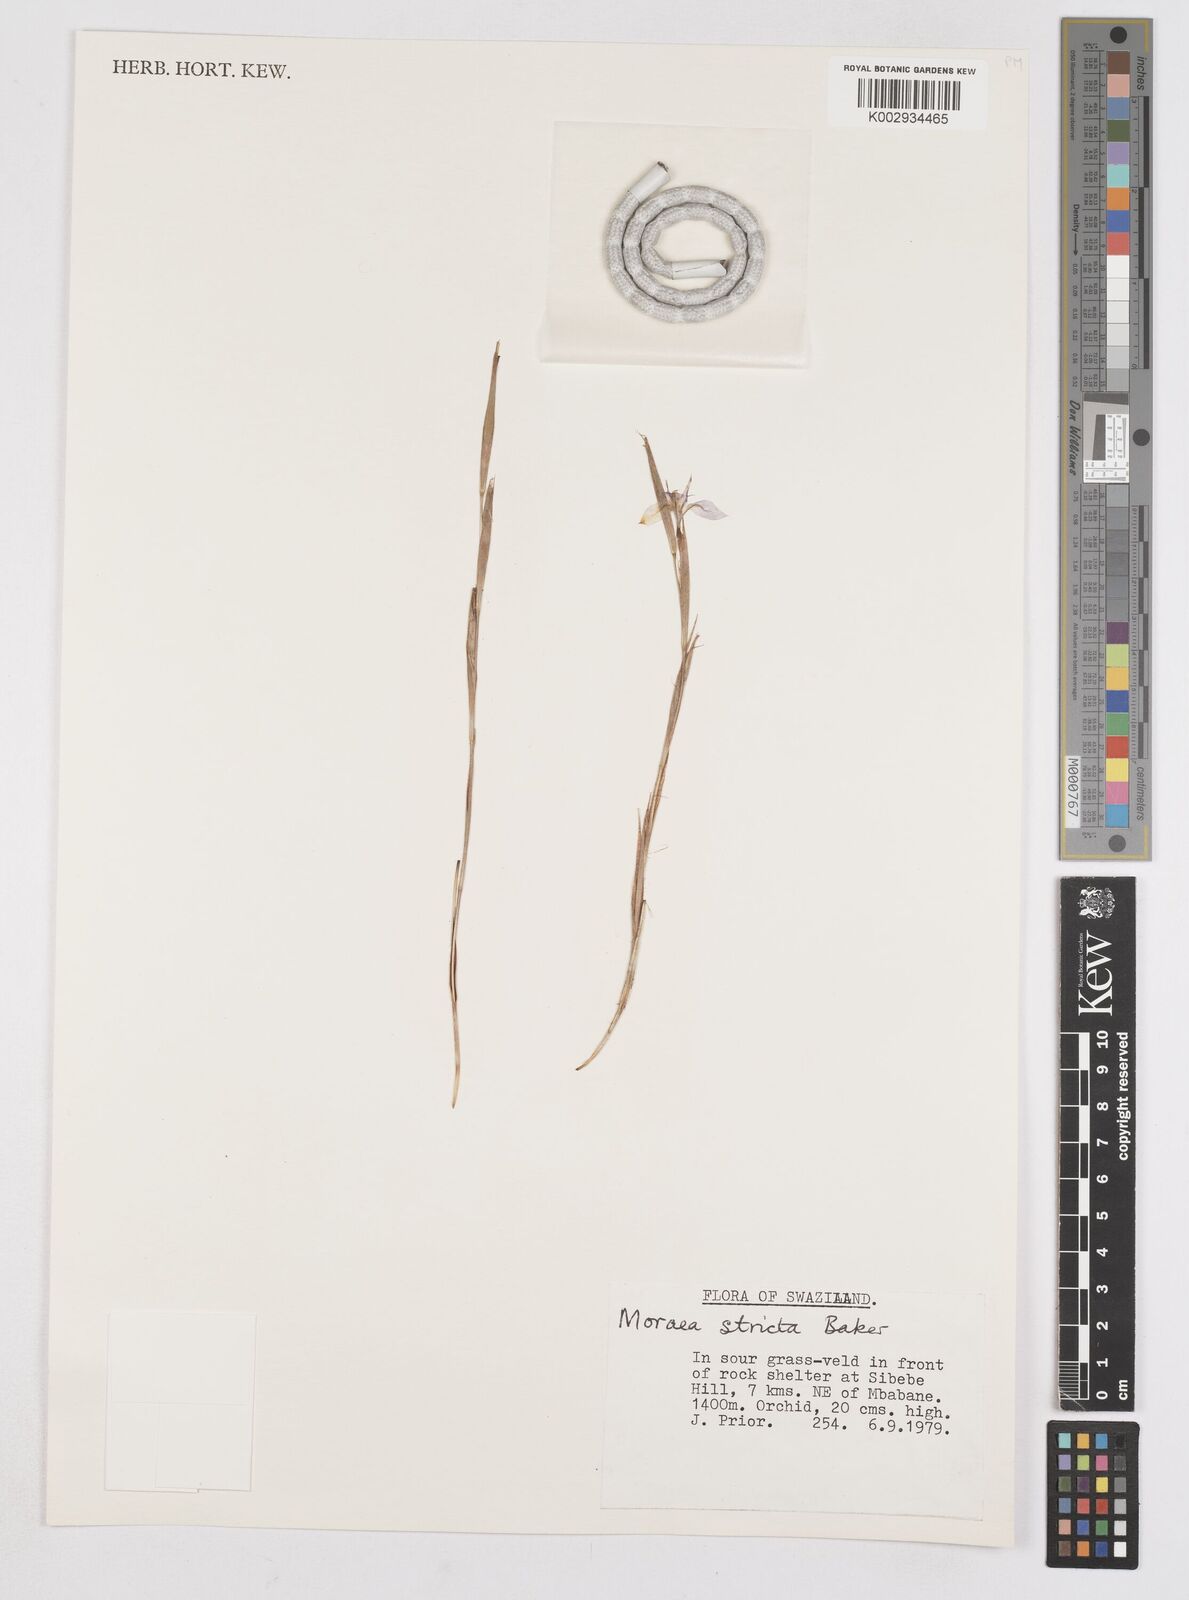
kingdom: Plantae
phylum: Tracheophyta
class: Liliopsida
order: Asparagales
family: Iridaceae
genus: Moraea
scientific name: Moraea stricta
